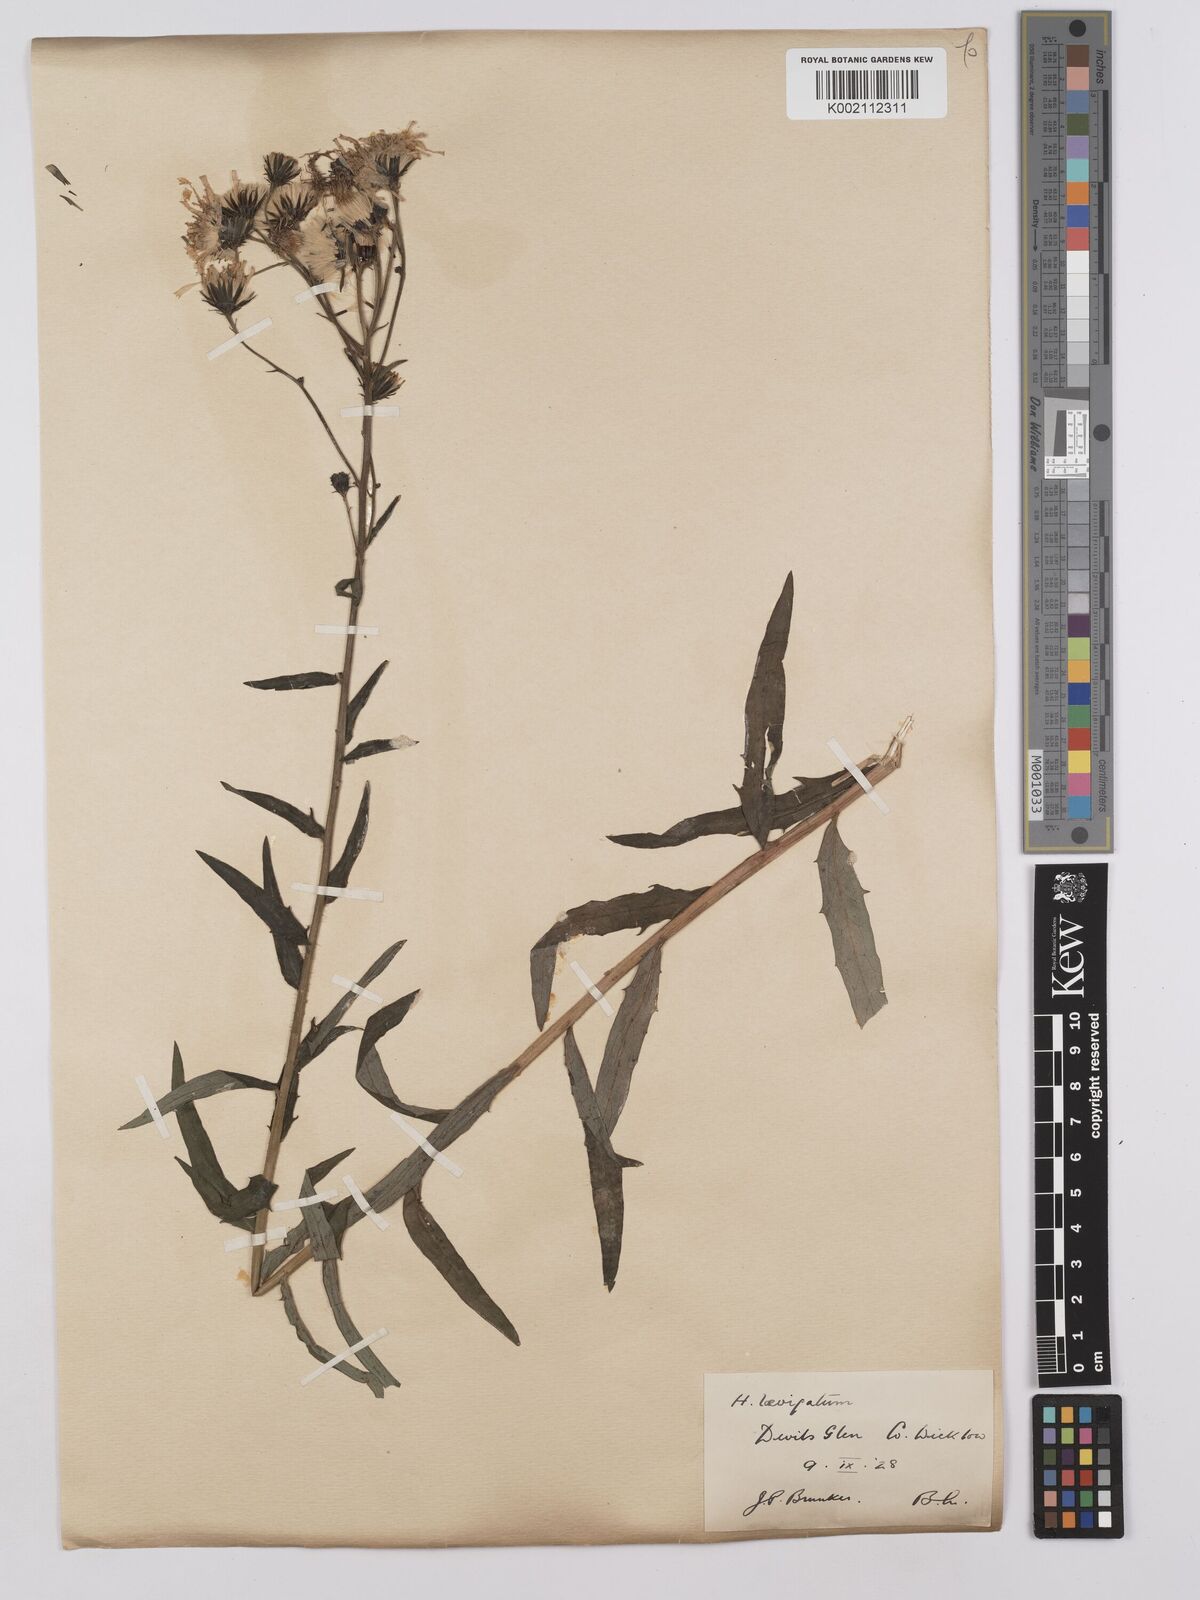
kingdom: Plantae
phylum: Tracheophyta
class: Magnoliopsida
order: Asterales
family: Asteraceae
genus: Hieracium
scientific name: Hieracium umbellatum
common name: Northern hawkweed
